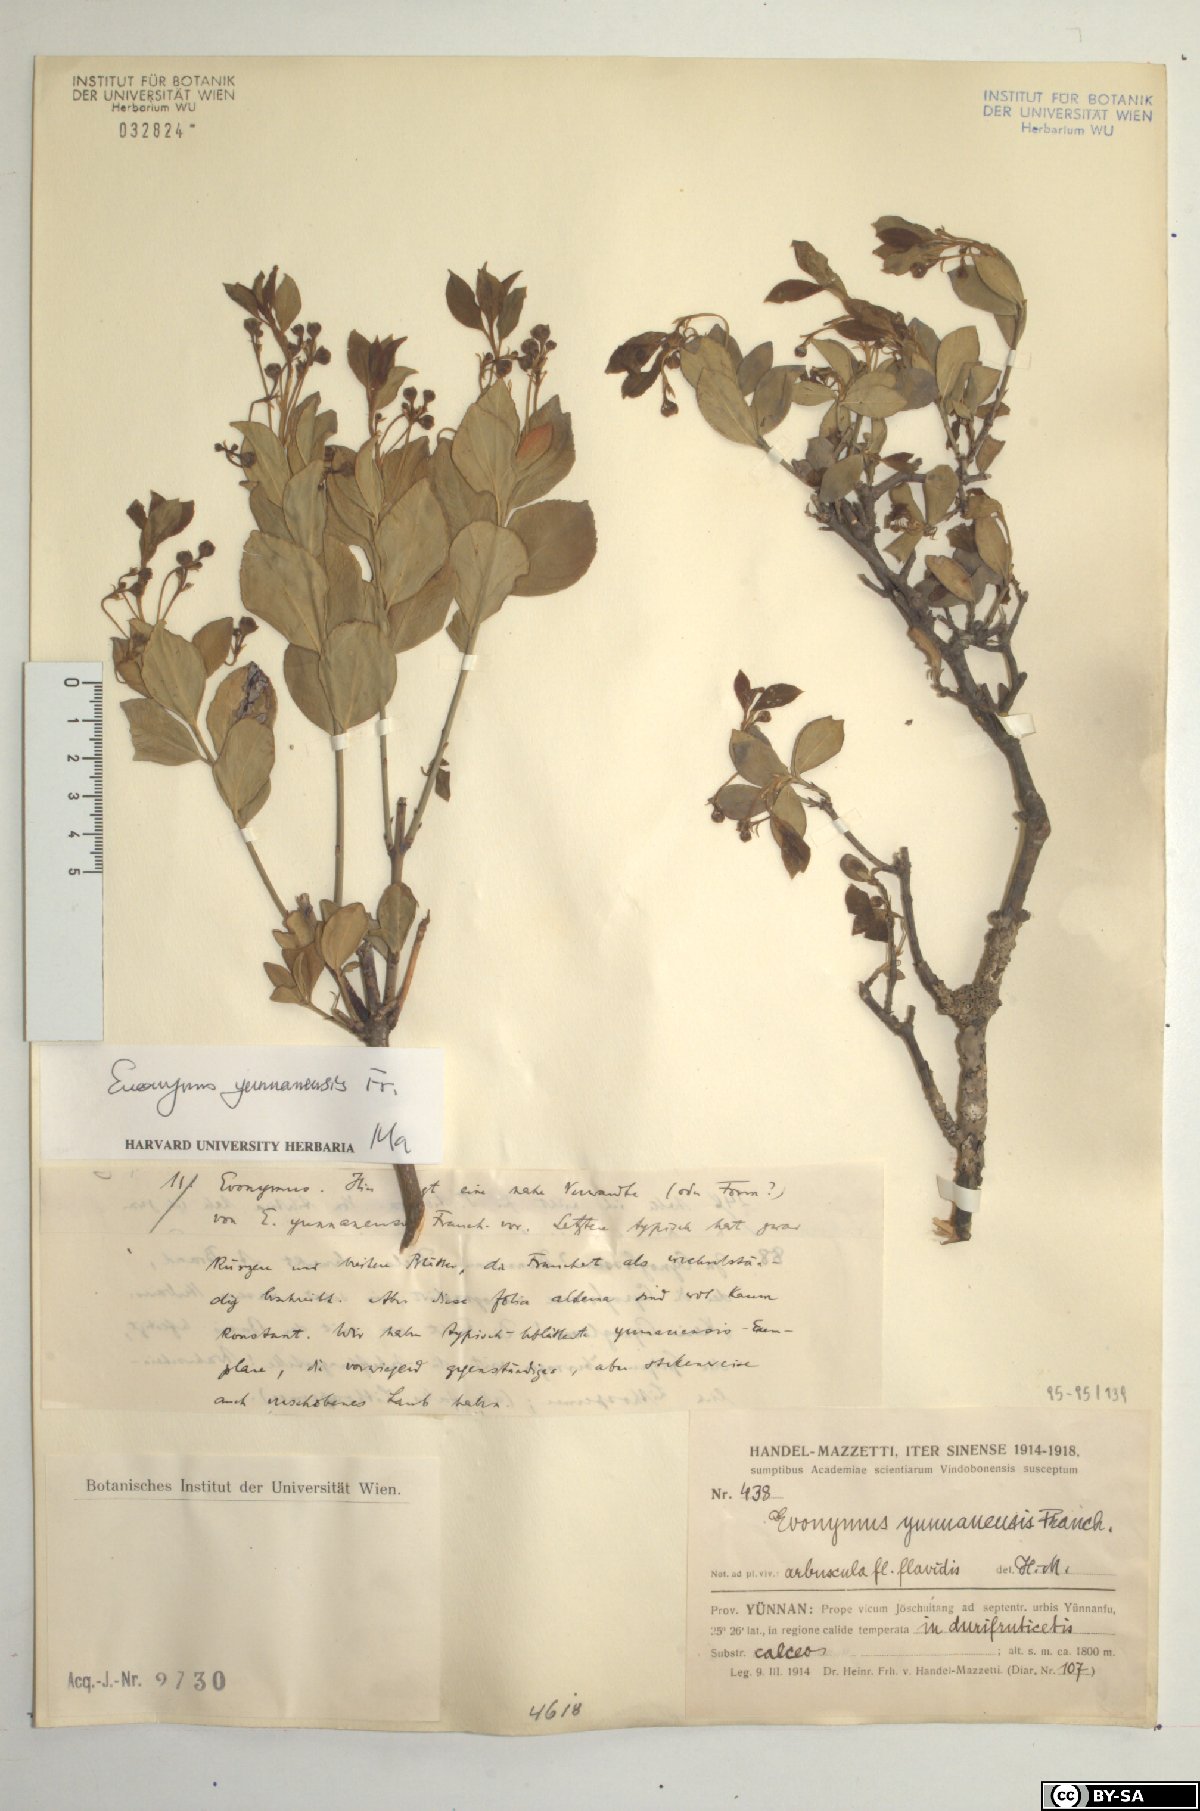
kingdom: Plantae
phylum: Tracheophyta
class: Magnoliopsida
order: Celastrales
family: Celastraceae
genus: Euonymus
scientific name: Euonymus yunnanensis
